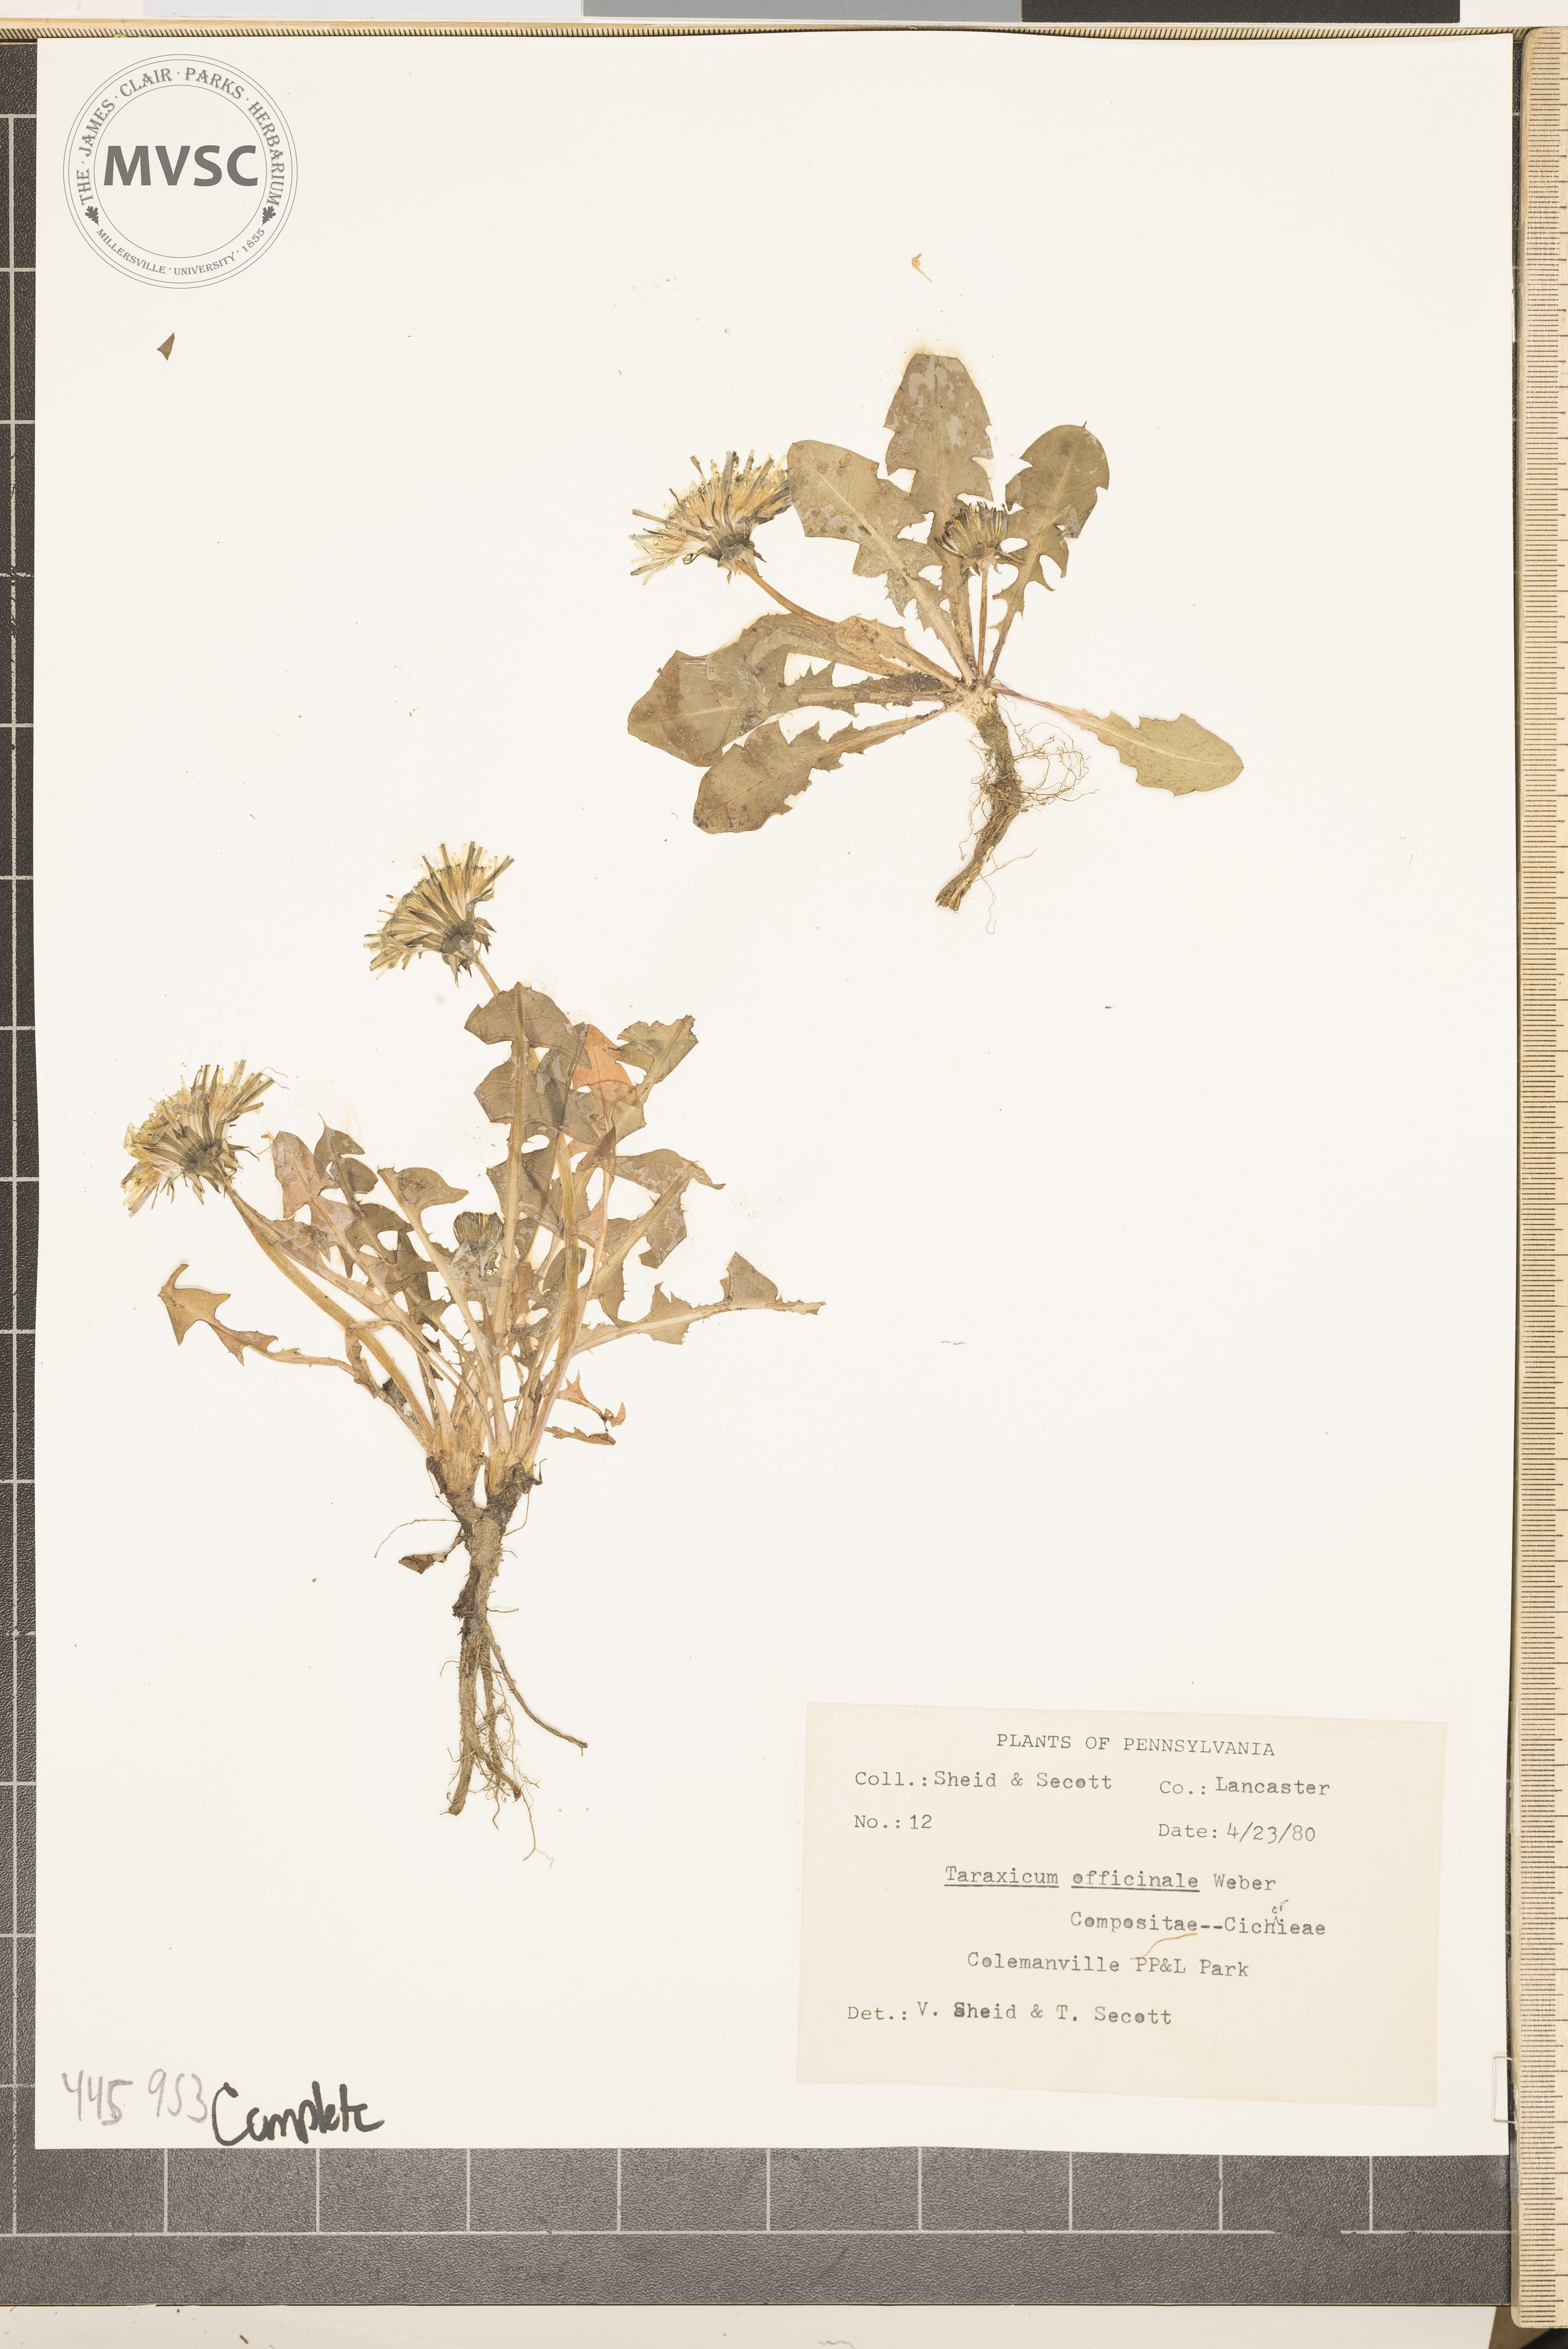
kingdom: Plantae
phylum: Tracheophyta
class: Magnoliopsida
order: Asterales
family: Asteraceae
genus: Taraxacum
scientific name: Taraxacum officinale
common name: Common dandelion
